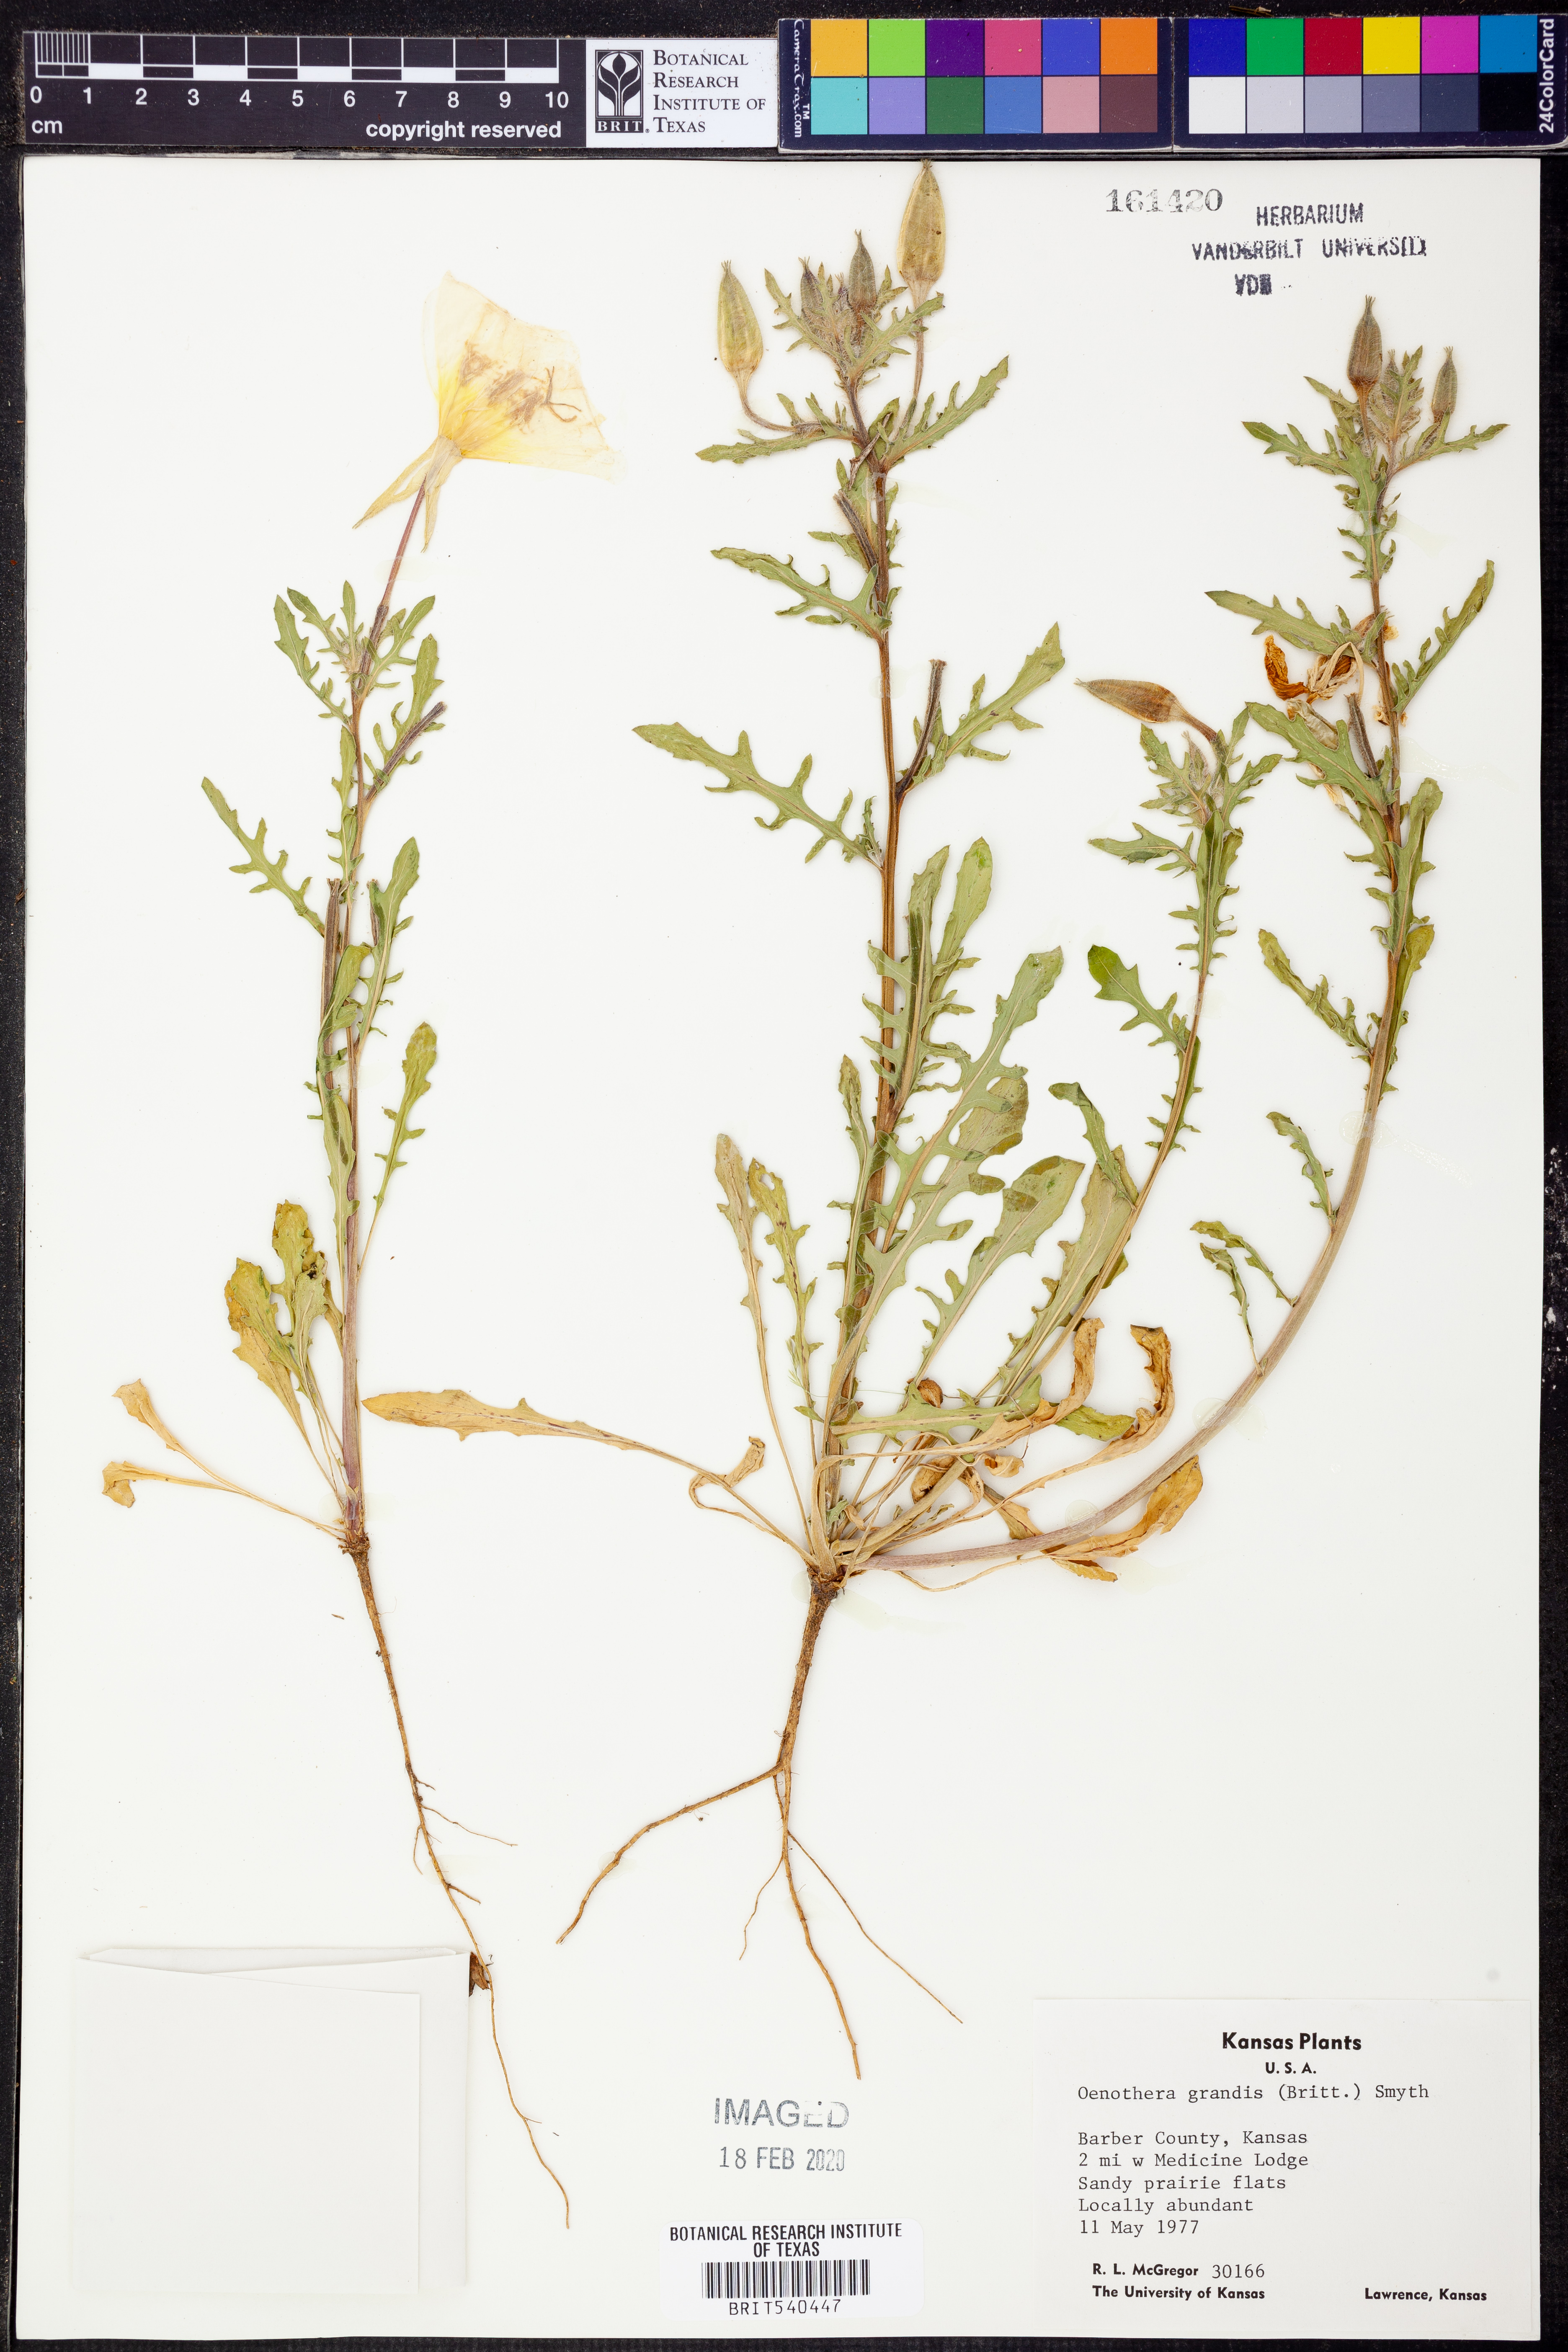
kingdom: Plantae
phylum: Tracheophyta
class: Magnoliopsida
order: Myrtales
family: Onagraceae
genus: Oenothera
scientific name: Oenothera grandis
